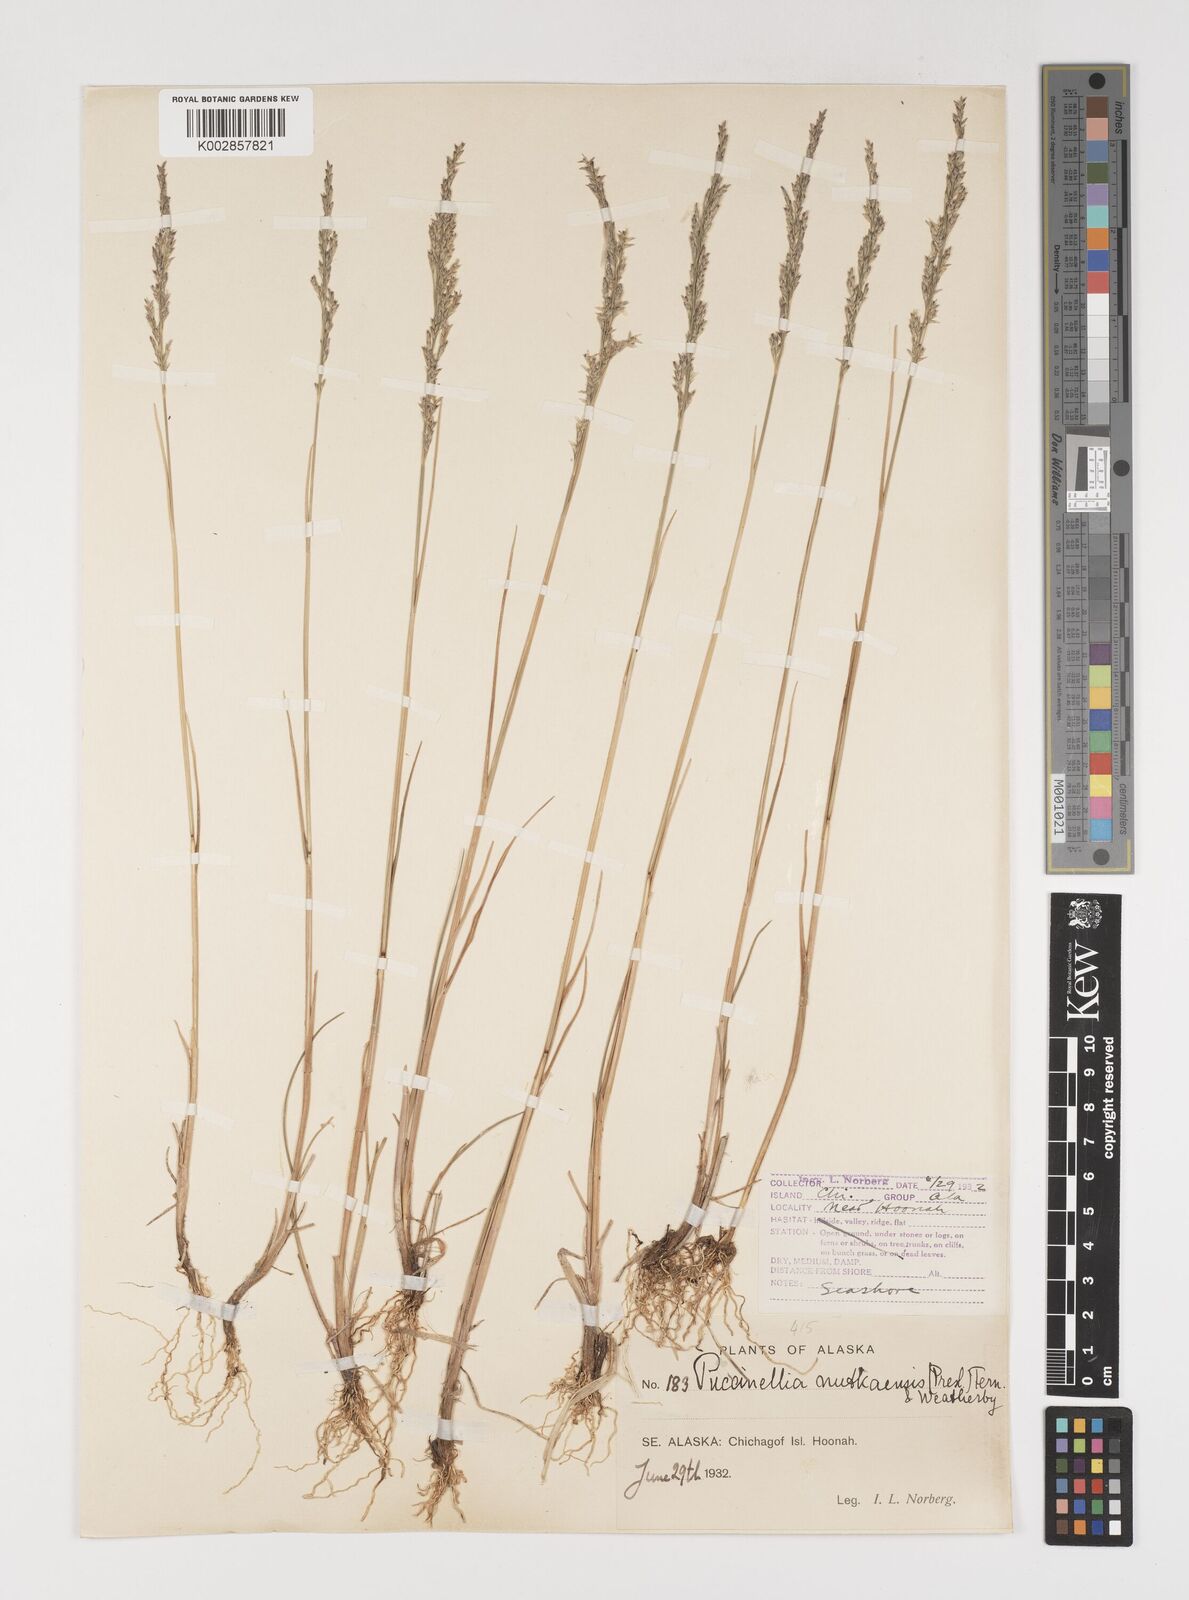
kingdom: Plantae
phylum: Tracheophyta
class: Liliopsida
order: Poales
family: Poaceae
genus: Puccinellia
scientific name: Puccinellia nutkaensis
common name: Nootka alkaligrass
